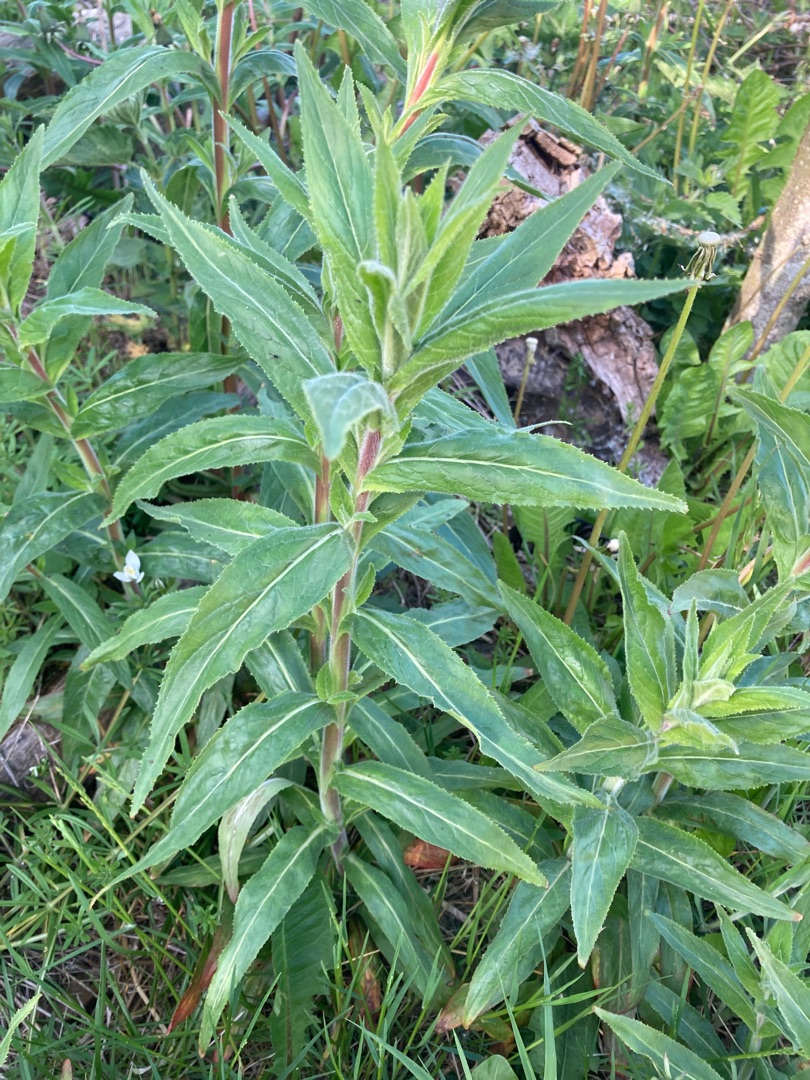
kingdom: Plantae
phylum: Tracheophyta
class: Magnoliopsida
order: Myrtales
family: Onagraceae
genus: Epilobium
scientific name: Epilobium hirsutum
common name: Lådden dueurt
